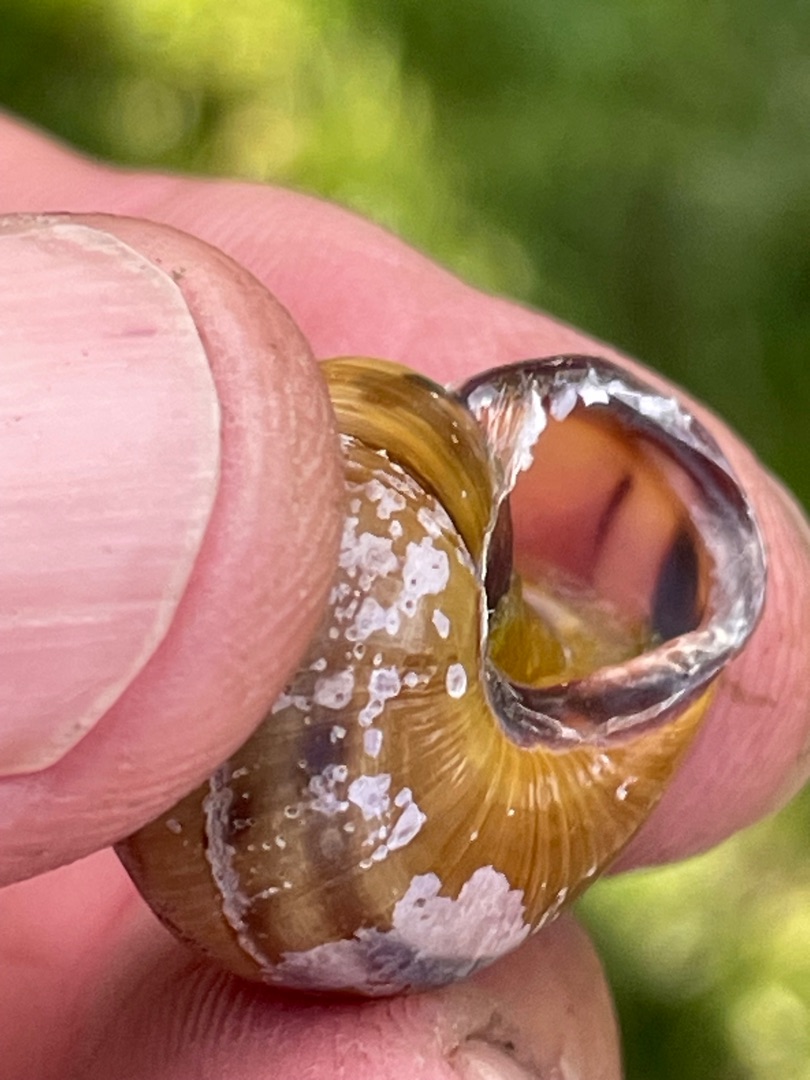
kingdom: Animalia
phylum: Mollusca
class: Gastropoda
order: Stylommatophora
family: Helicidae
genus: Cepaea
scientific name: Cepaea nemoralis
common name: Lundsnegl
